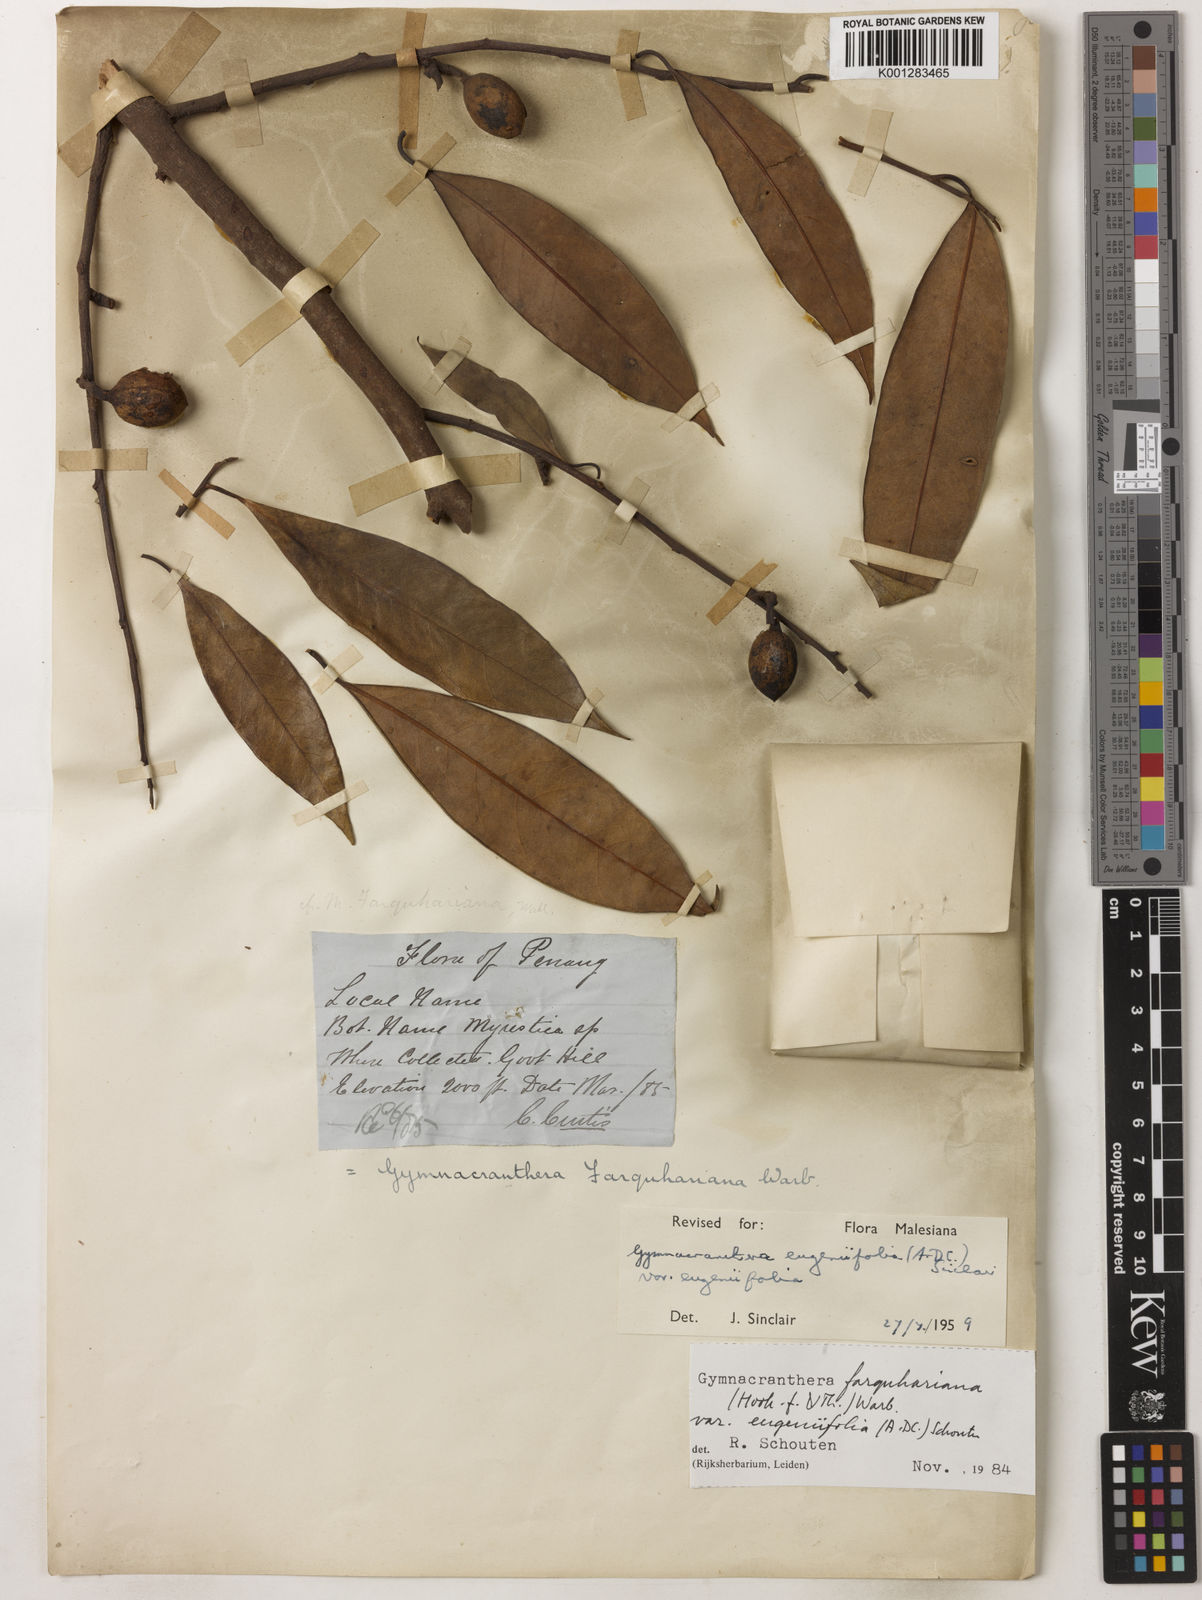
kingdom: Plantae
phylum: Tracheophyta
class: Magnoliopsida
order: Magnoliales
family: Myristicaceae
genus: Gymnacranthera
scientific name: Gymnacranthera farquhariana
